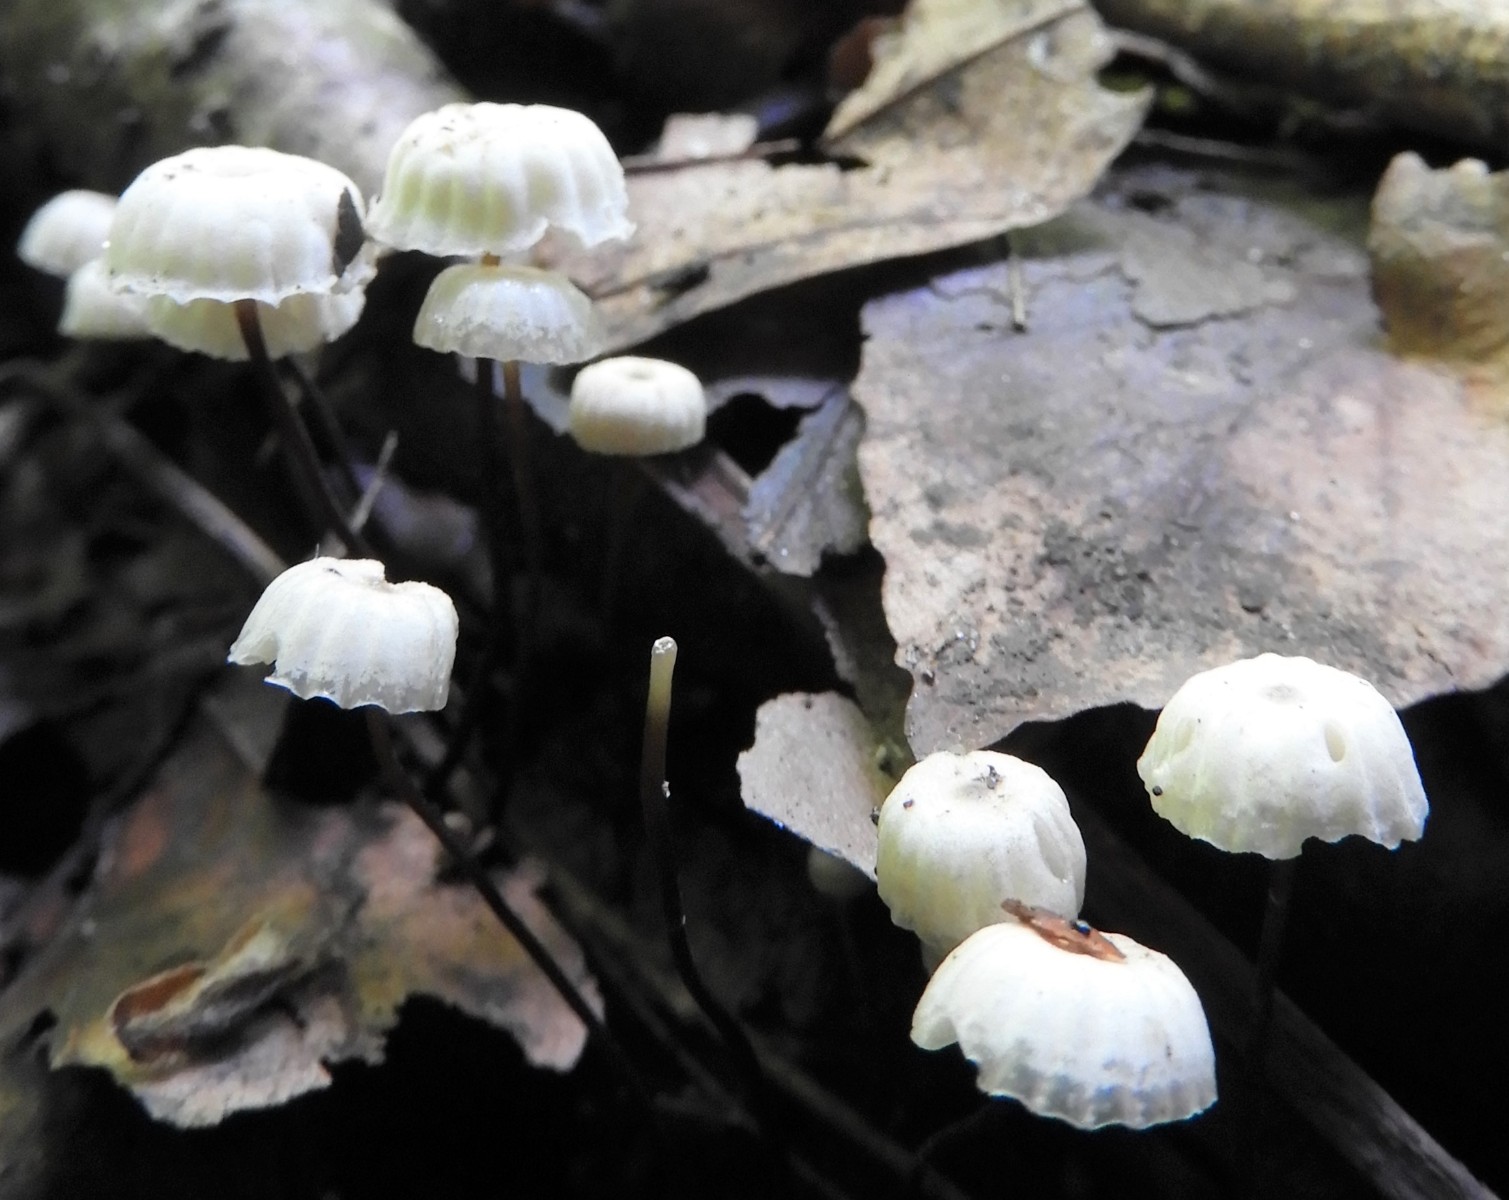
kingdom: Fungi
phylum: Basidiomycota
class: Agaricomycetes
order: Agaricales
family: Marasmiaceae
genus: Marasmius
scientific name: Marasmius rotula
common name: hjul-bruskhat
